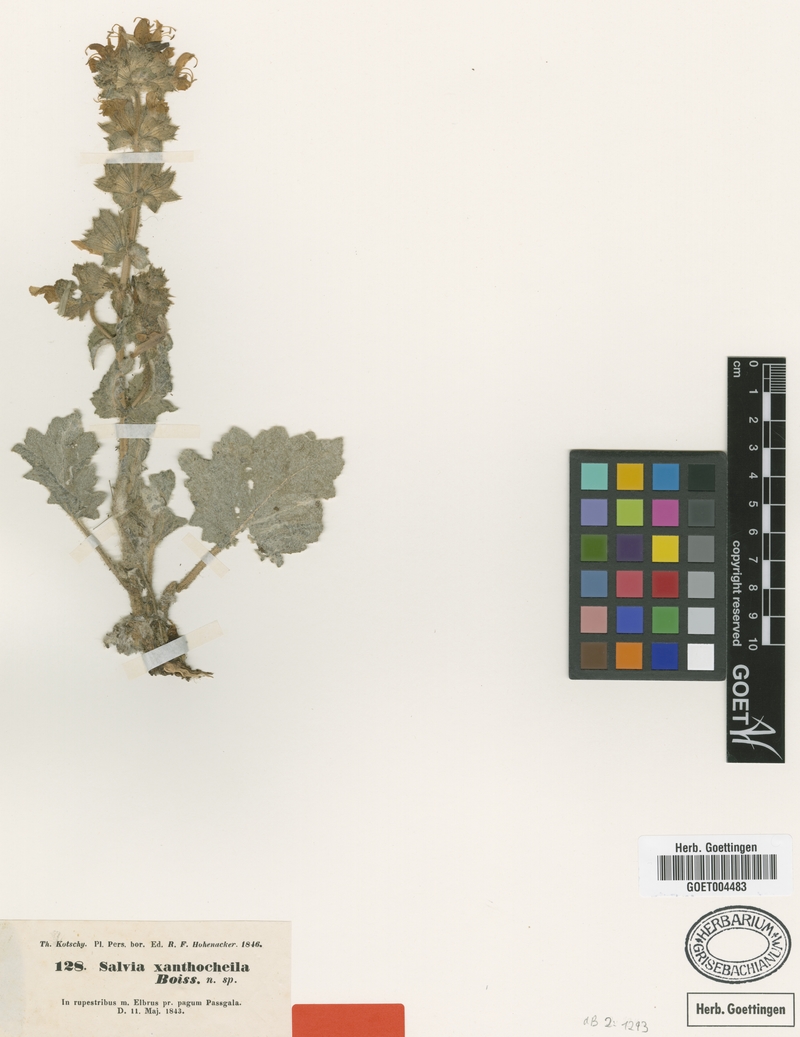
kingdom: Plantae
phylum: Tracheophyta
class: Magnoliopsida
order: Lamiales
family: Lamiaceae
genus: Salvia
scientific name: Salvia xanthocheila
